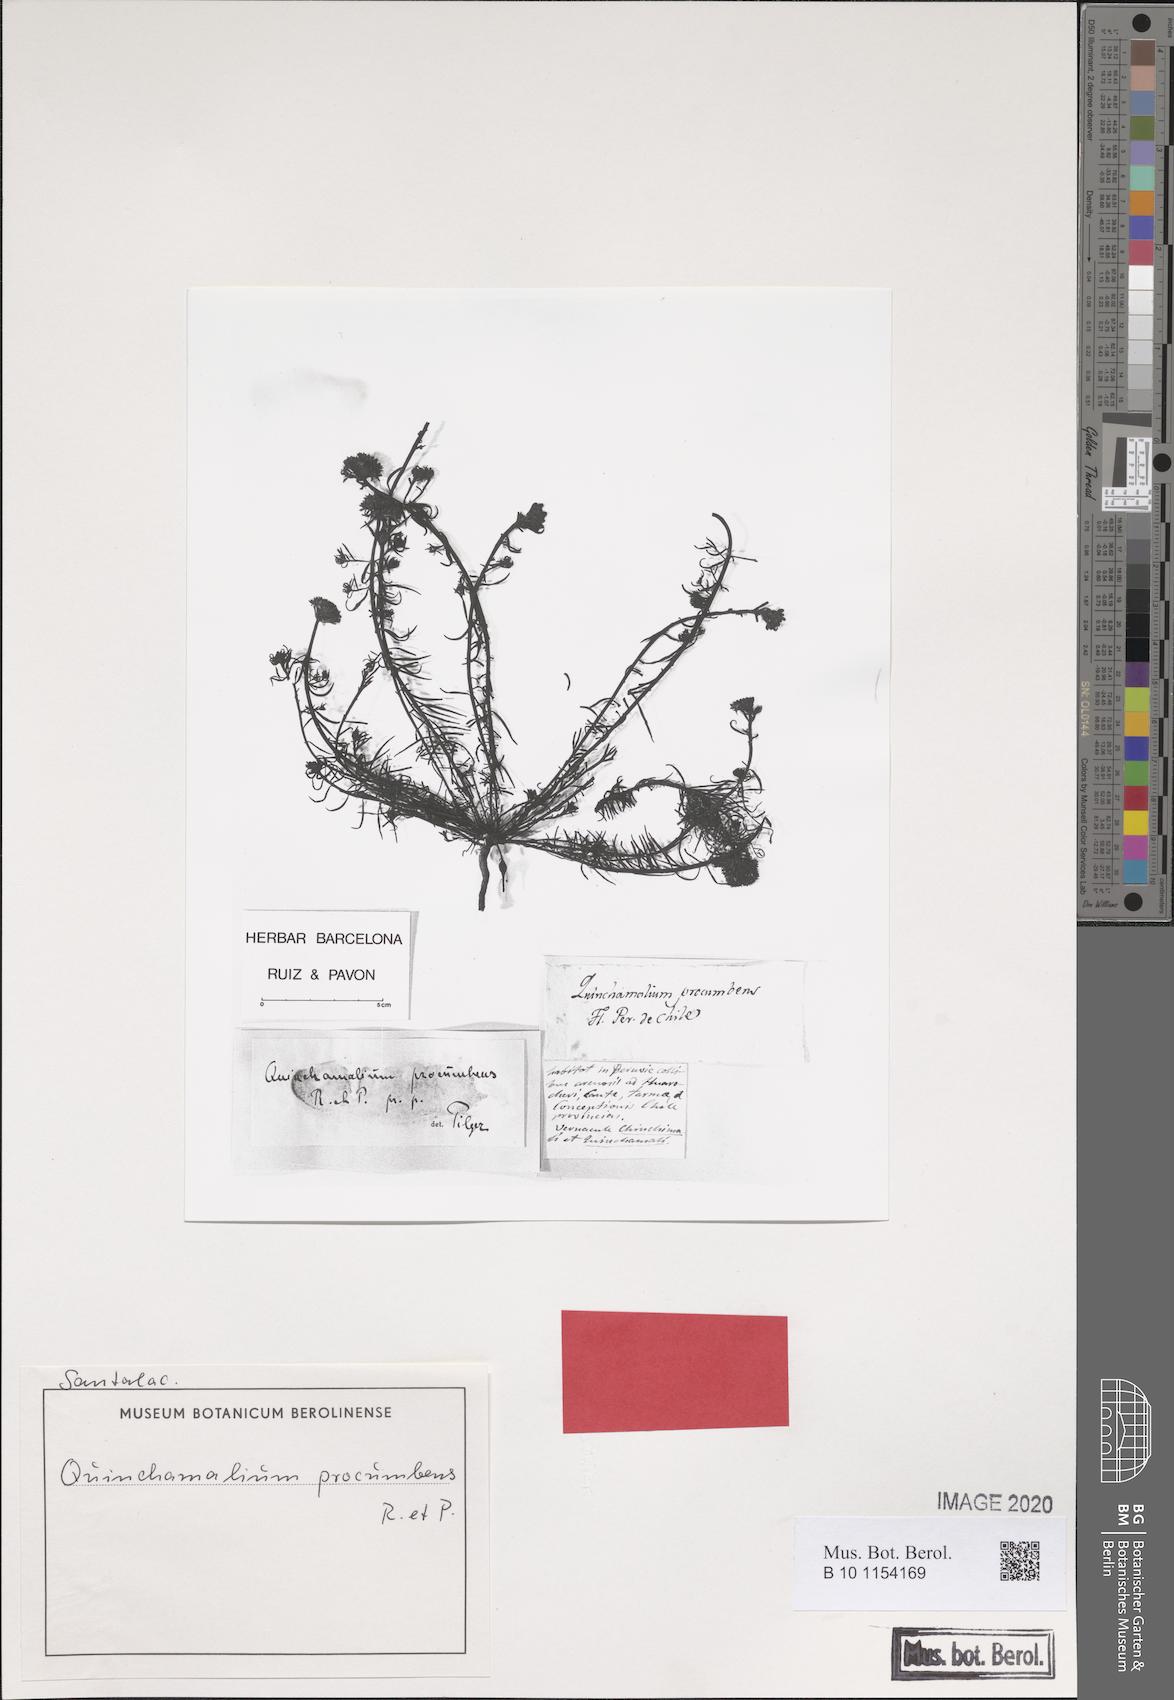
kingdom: Plantae
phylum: Tracheophyta
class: Magnoliopsida
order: Santalales
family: Schoepfiaceae
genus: Quinchamalium
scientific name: Quinchamalium chilense
